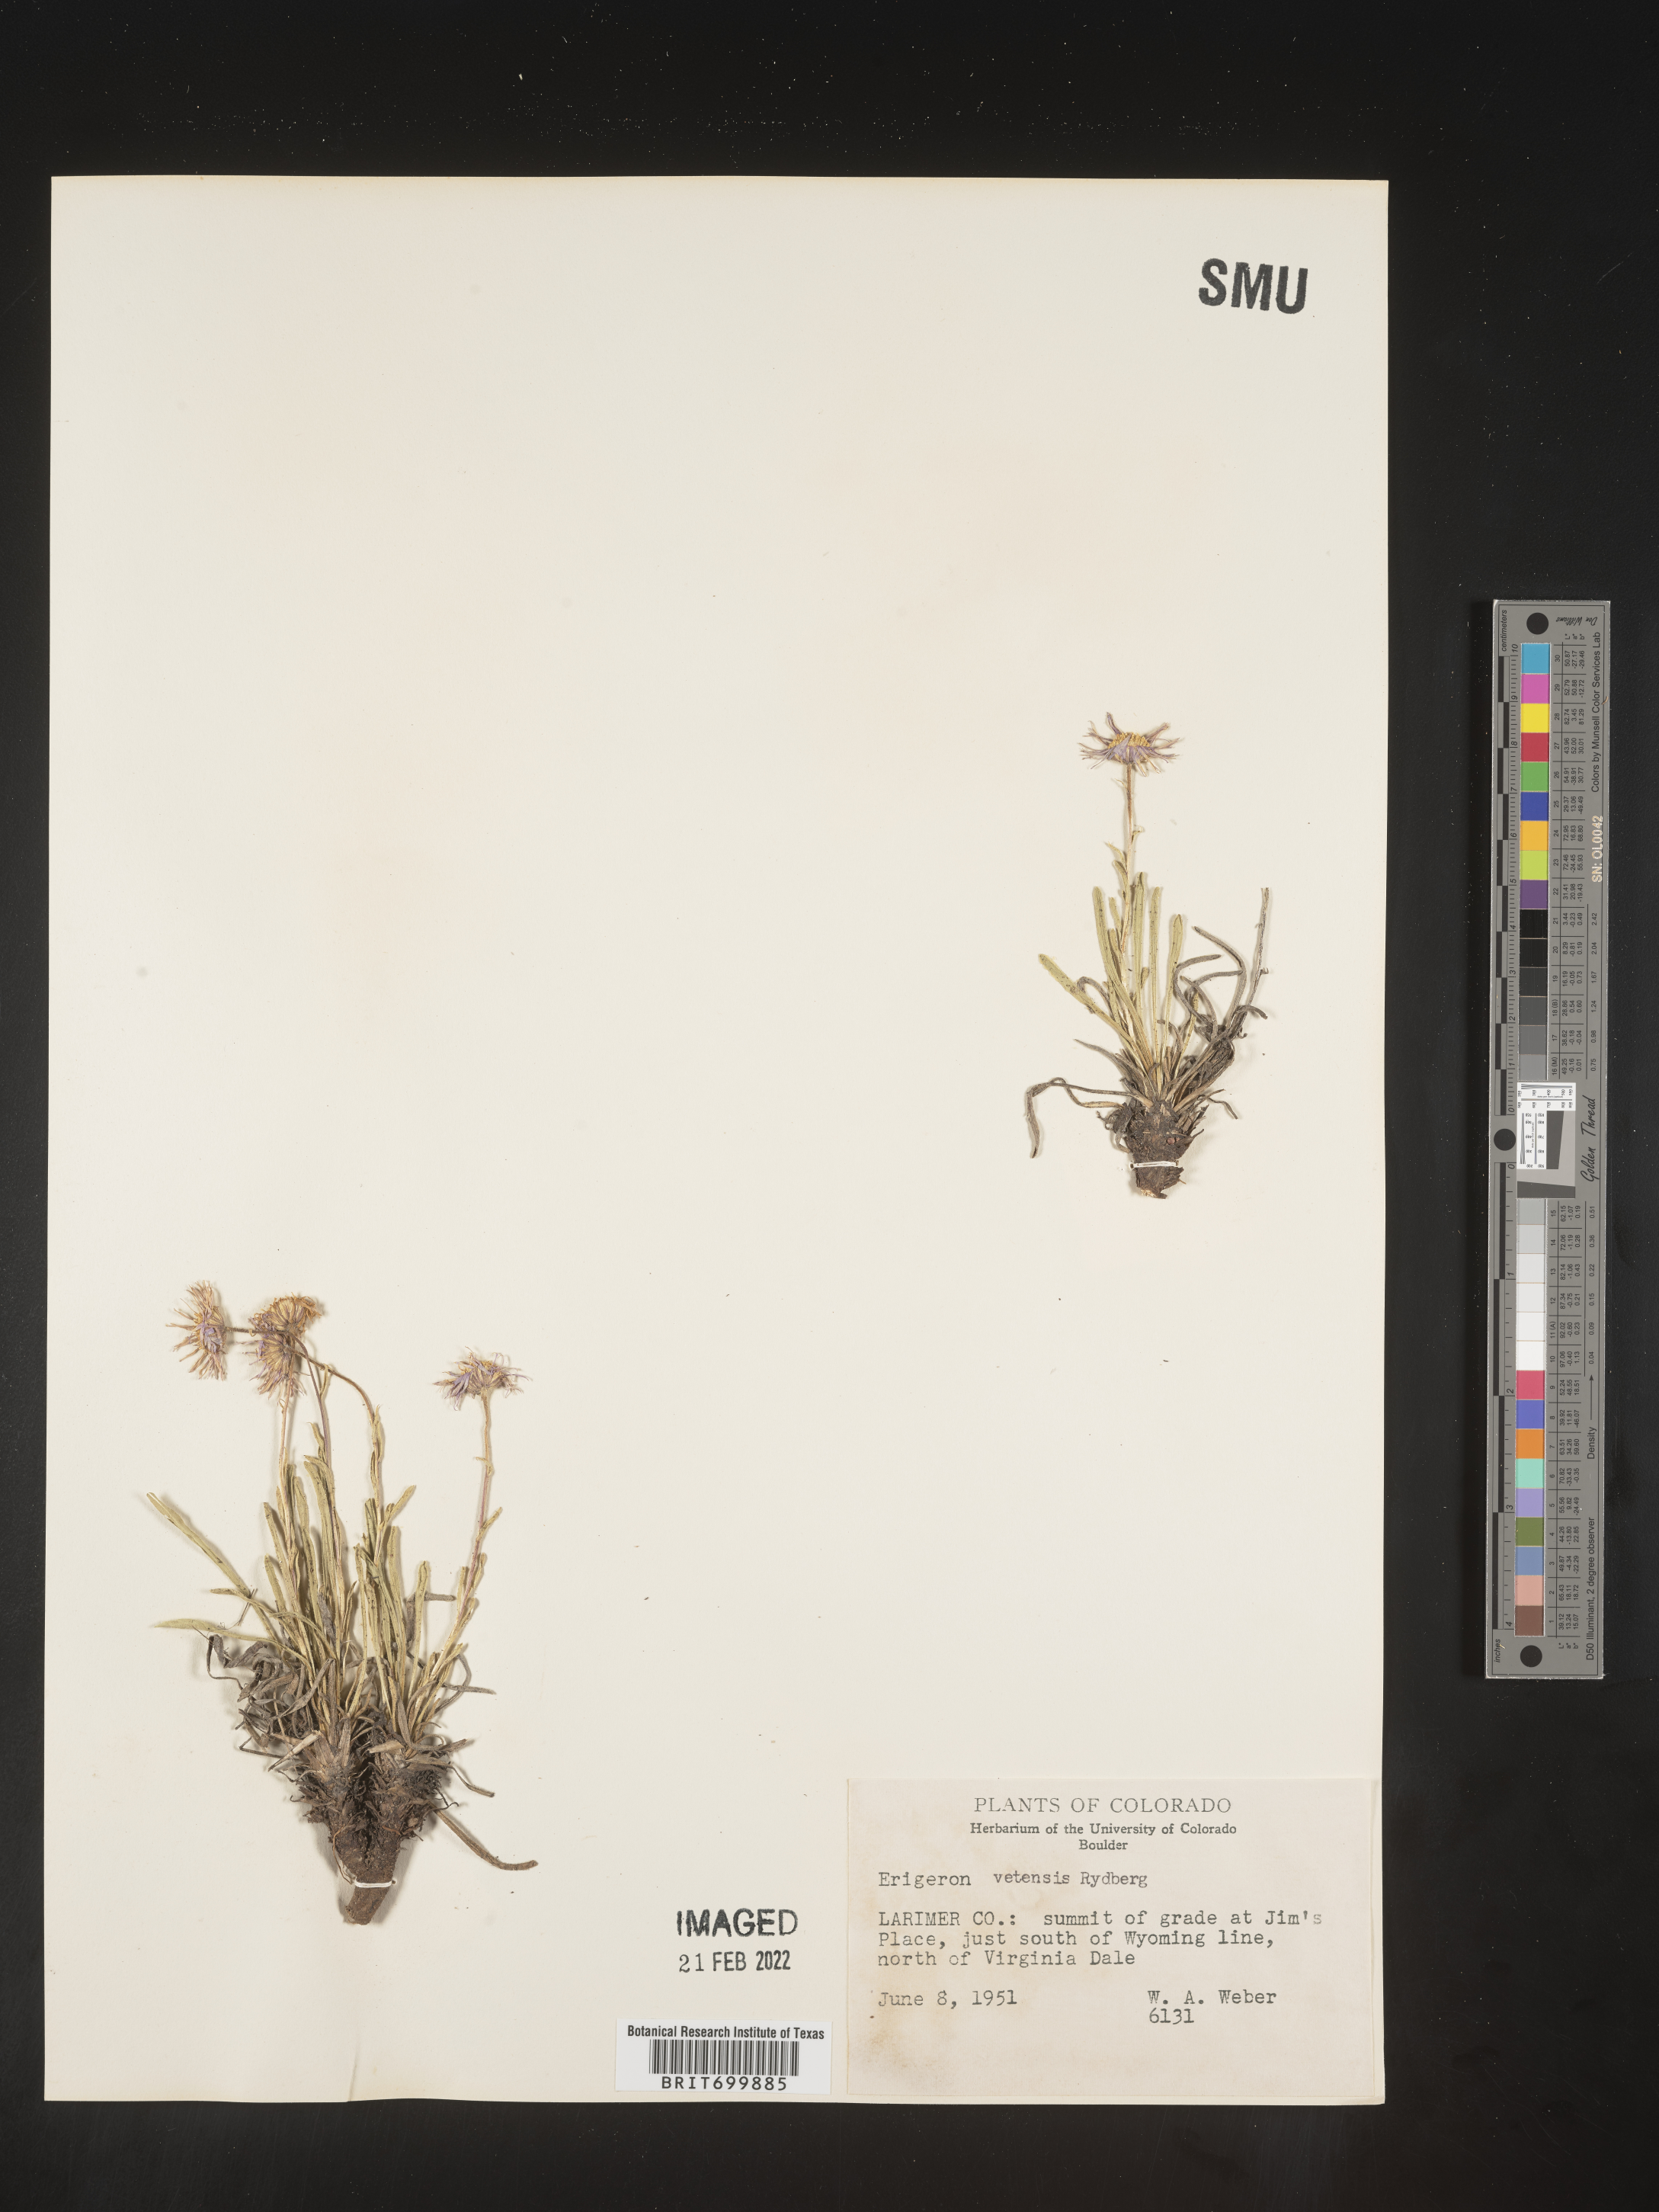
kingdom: Plantae
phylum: Tracheophyta
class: Magnoliopsida
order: Asterales
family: Asteraceae
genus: Erigeron
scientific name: Erigeron vetensis
